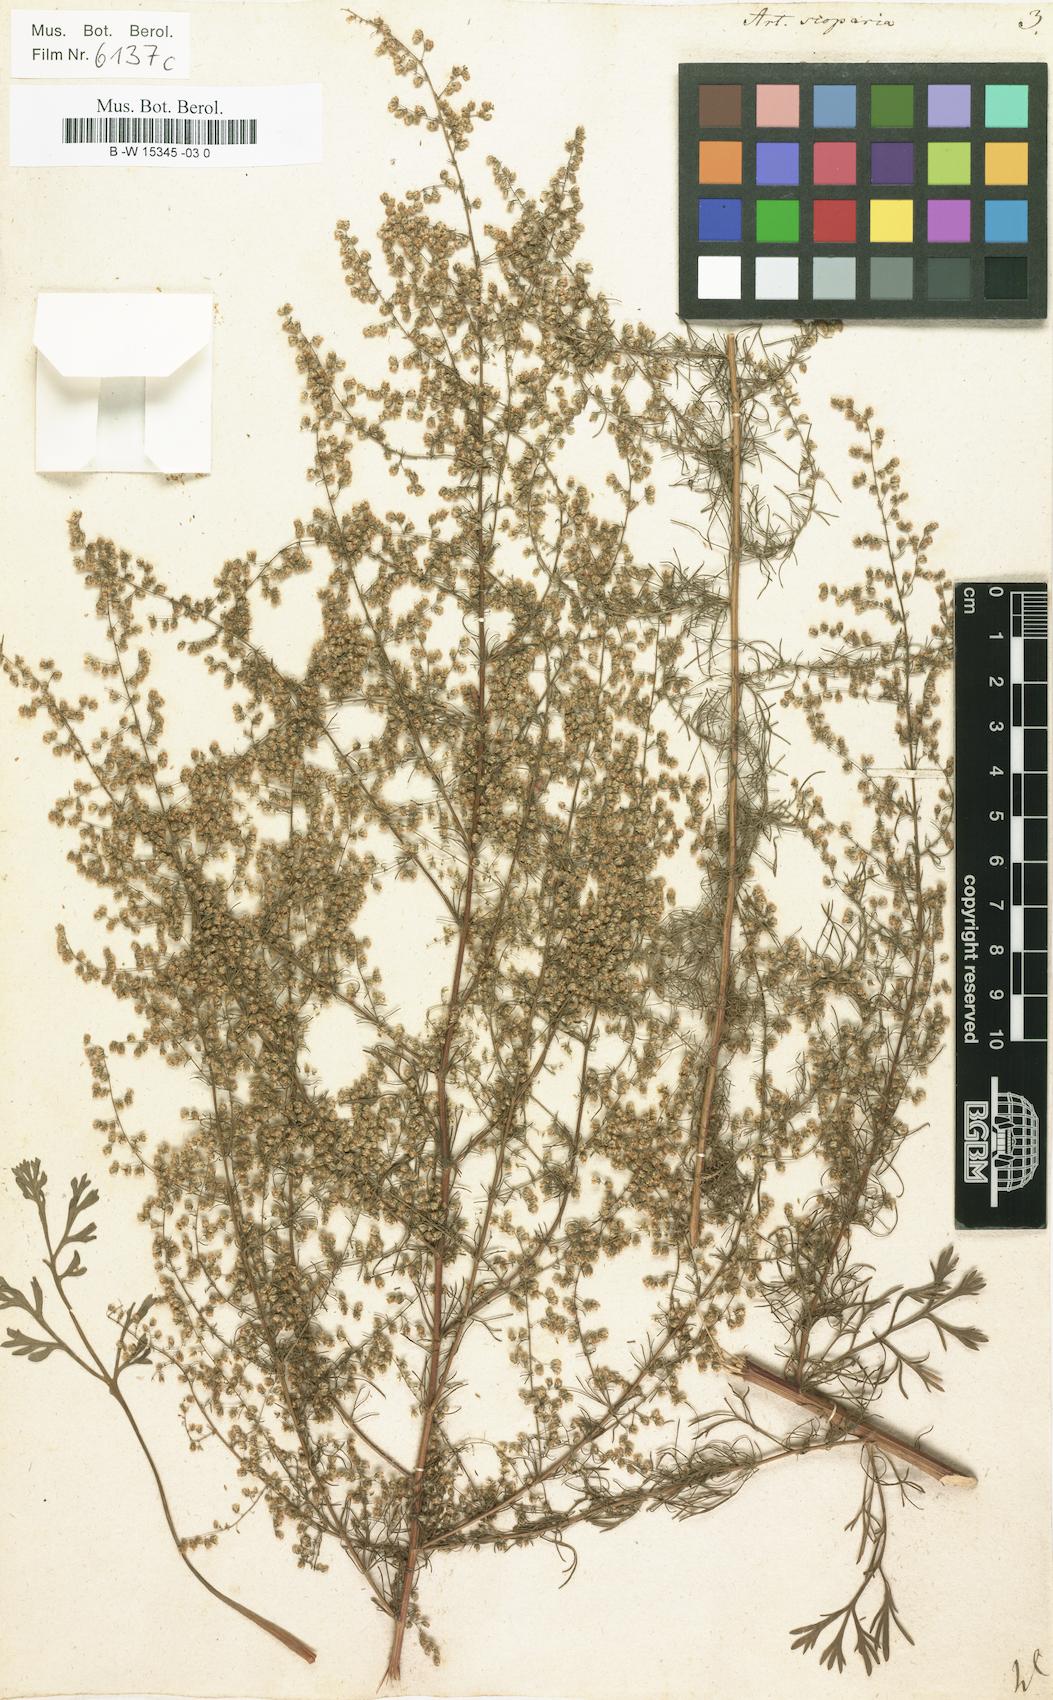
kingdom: Plantae
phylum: Tracheophyta
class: Magnoliopsida
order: Asterales
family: Asteraceae
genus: Artemisia
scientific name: Artemisia scoparia
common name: Redstem wormwood
